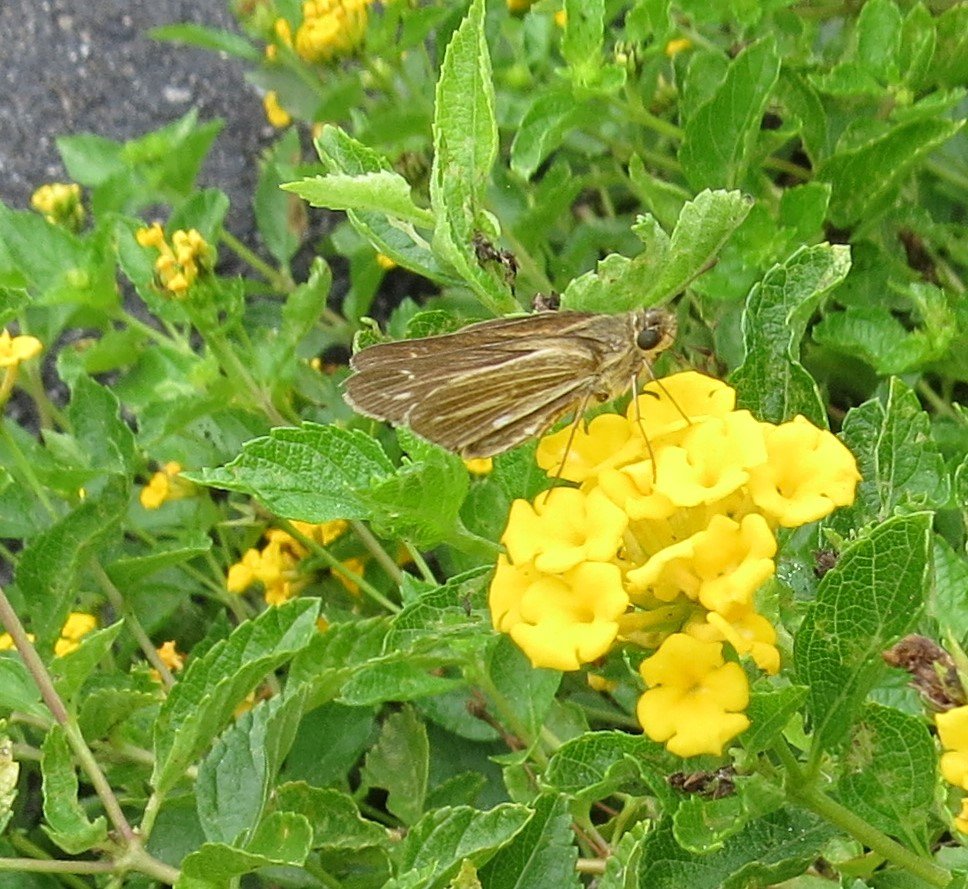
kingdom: Animalia
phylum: Arthropoda
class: Insecta
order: Lepidoptera
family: Hesperiidae
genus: Panoquina
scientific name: Panoquina ocola
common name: Ocola Skipper
